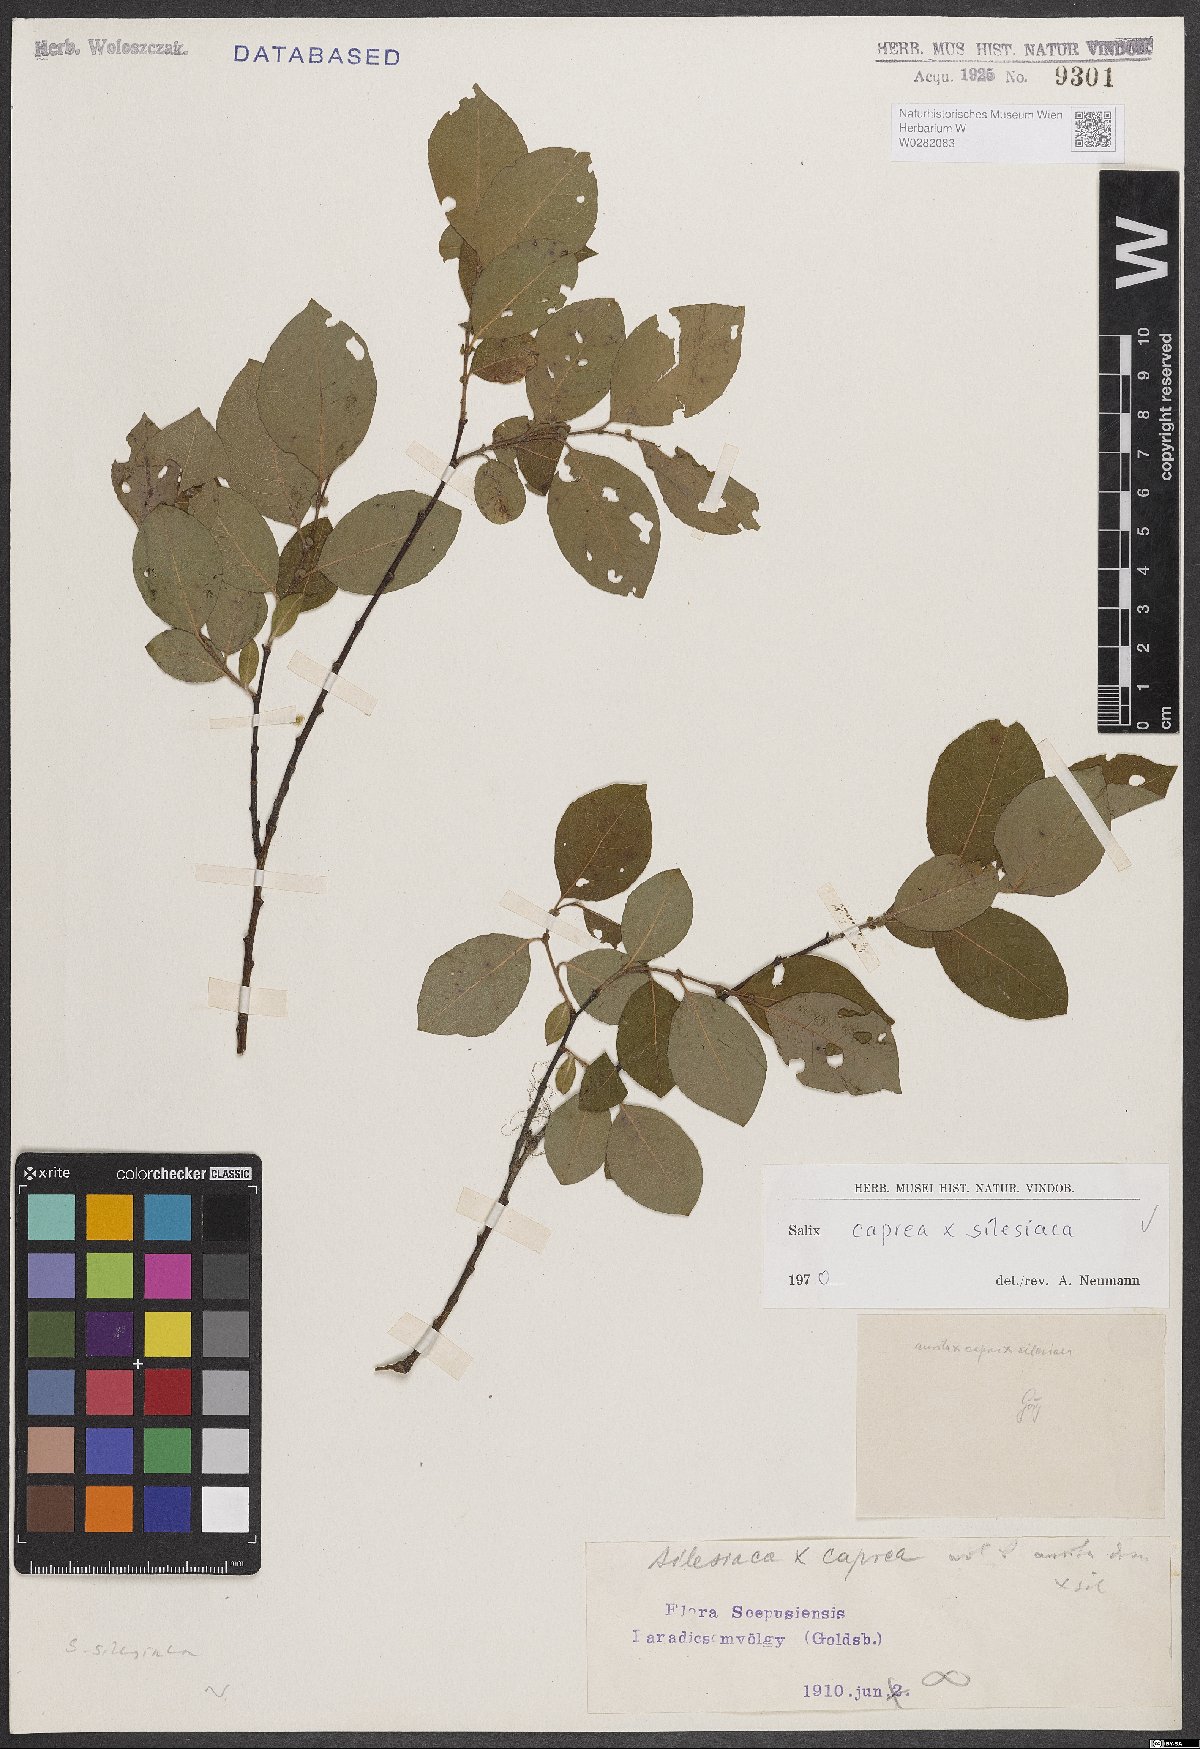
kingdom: Plantae
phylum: Tracheophyta
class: Magnoliopsida
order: Malpighiales
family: Salicaceae
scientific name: Salicaceae
